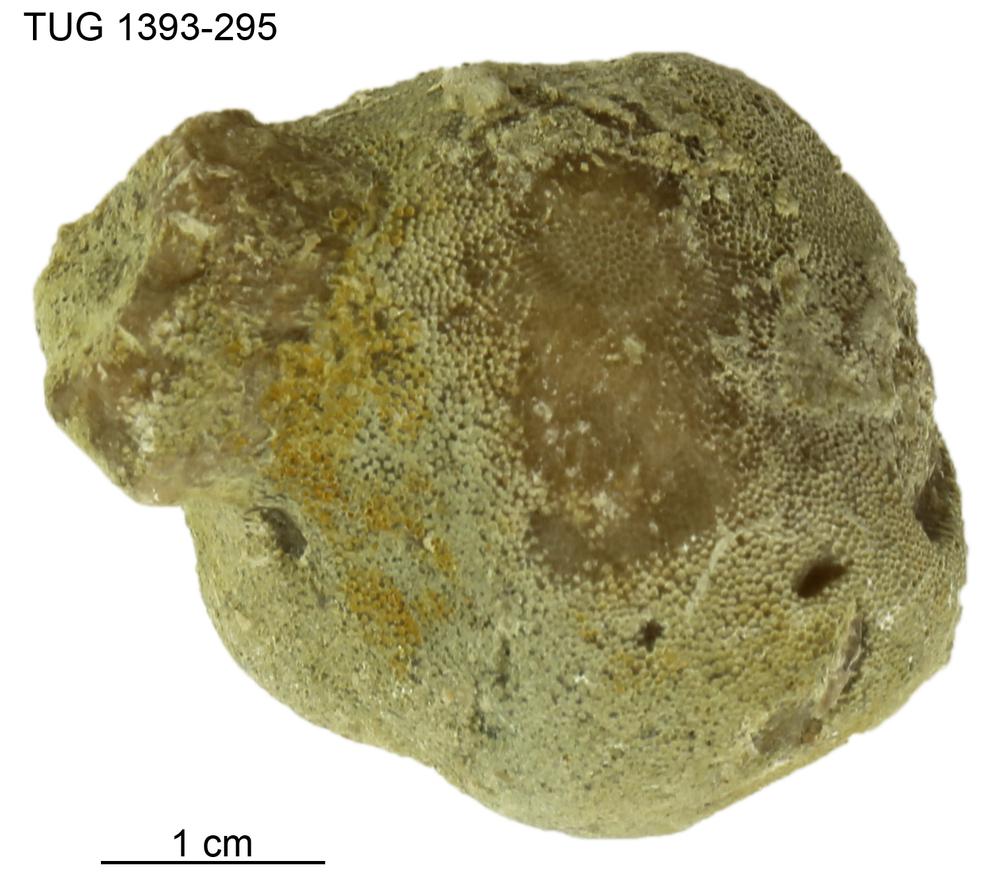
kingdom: Animalia
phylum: Bryozoa
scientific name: Bryozoa
